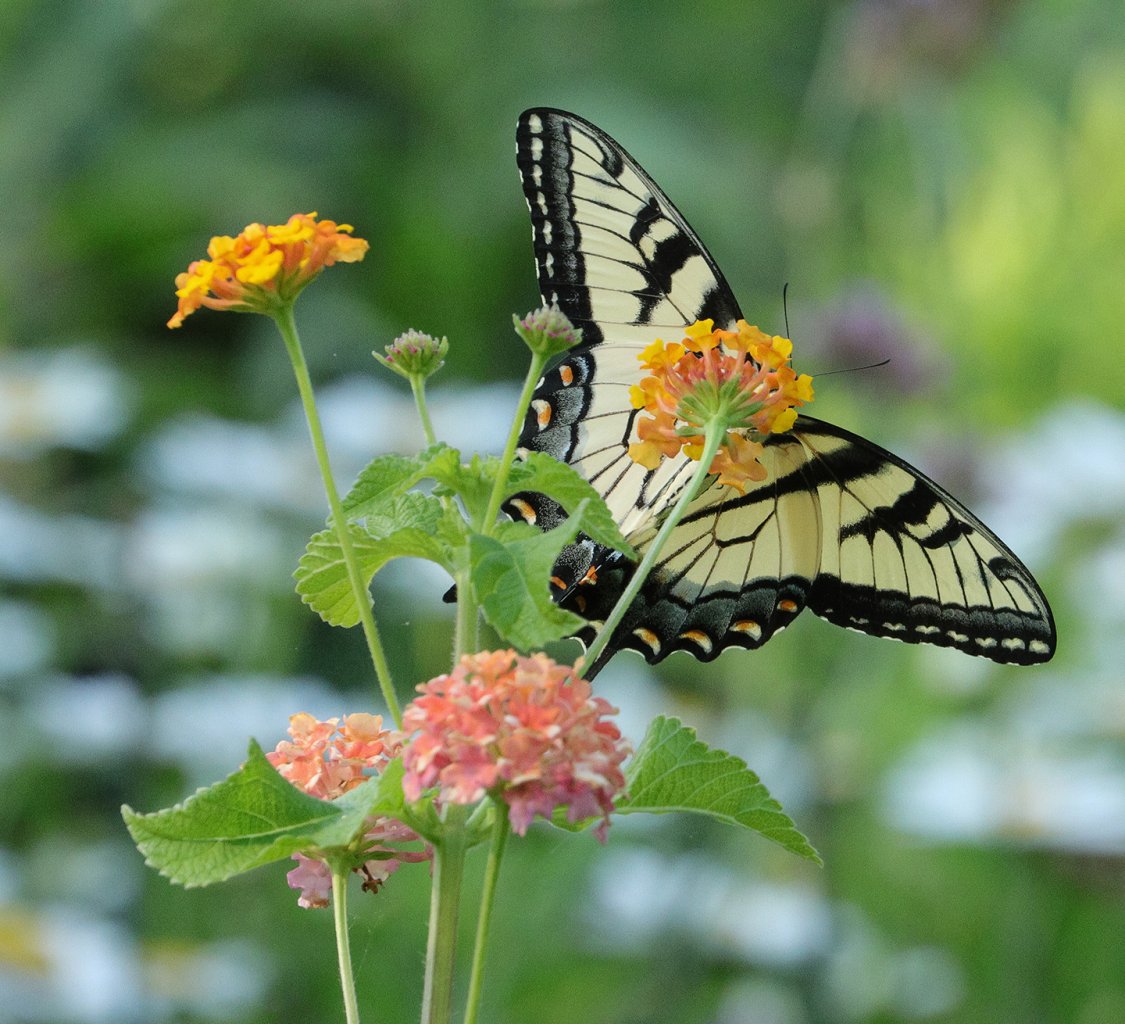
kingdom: Animalia
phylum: Arthropoda
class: Insecta
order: Lepidoptera
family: Papilionidae
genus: Pterourus
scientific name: Pterourus glaucus
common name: Eastern Tiger Swallowtail
